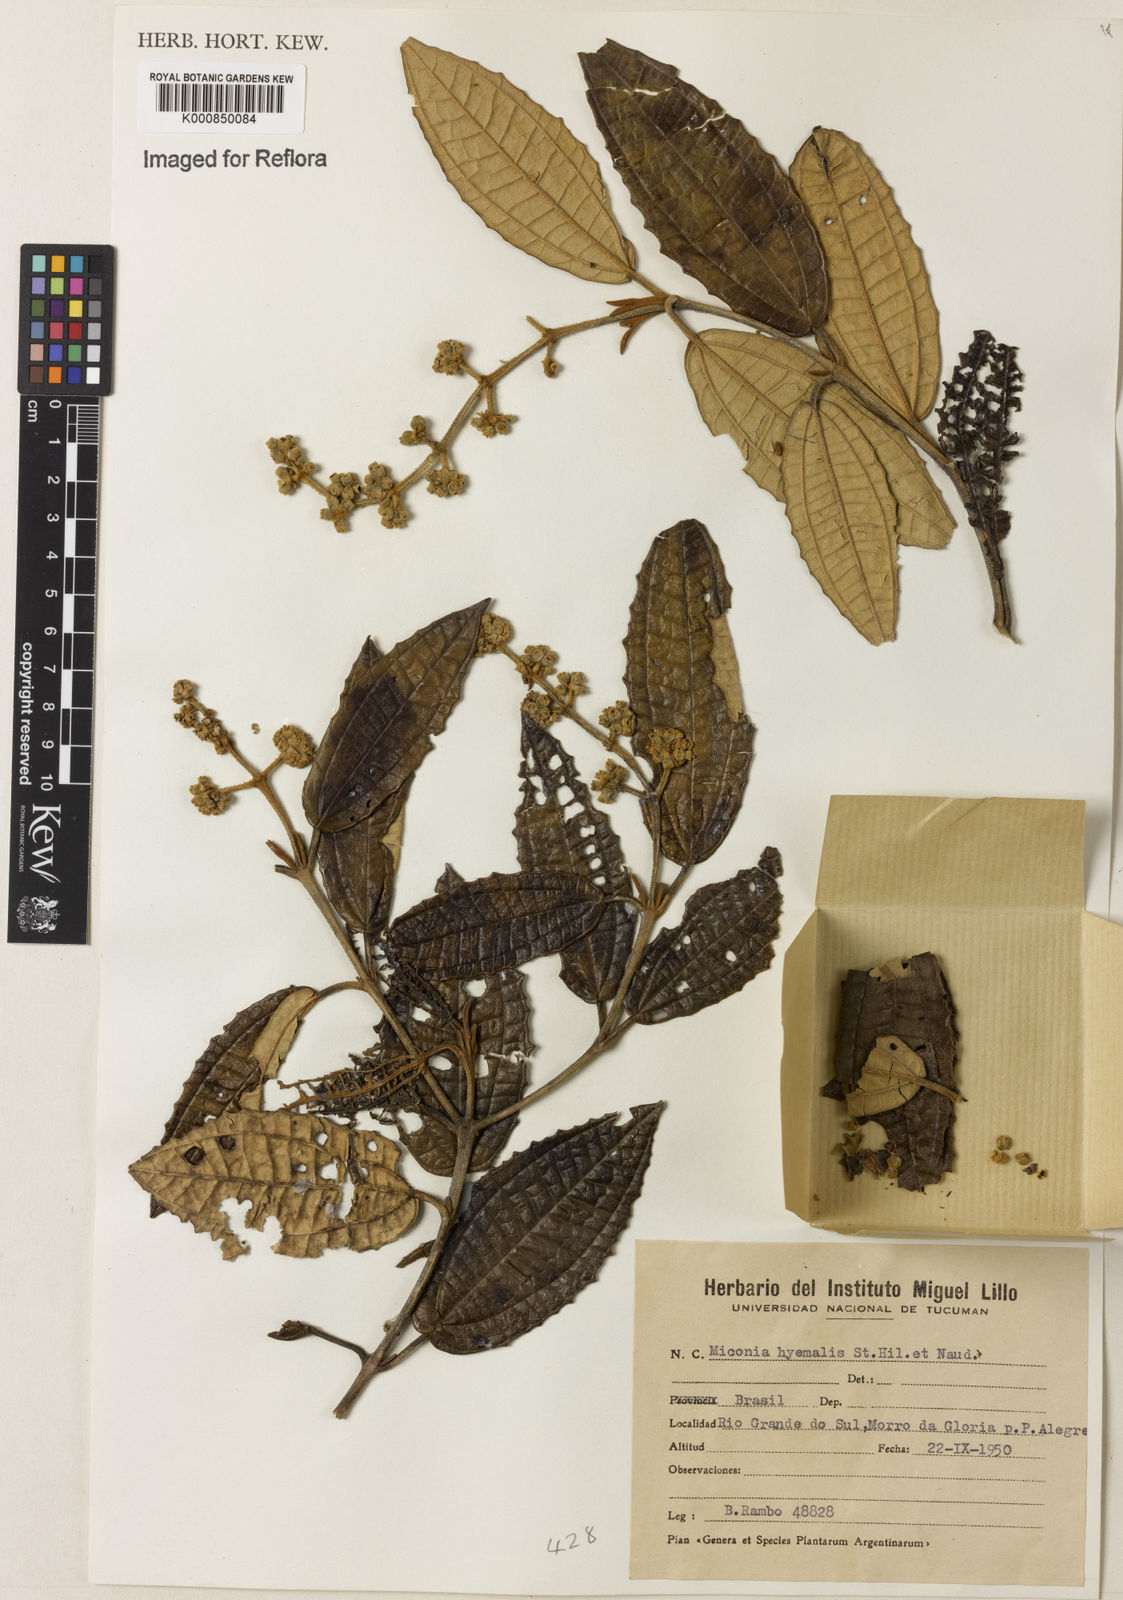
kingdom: Plantae
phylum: Tracheophyta
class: Magnoliopsida
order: Myrtales
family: Melastomataceae
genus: Miconia
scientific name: Miconia hyemalis
